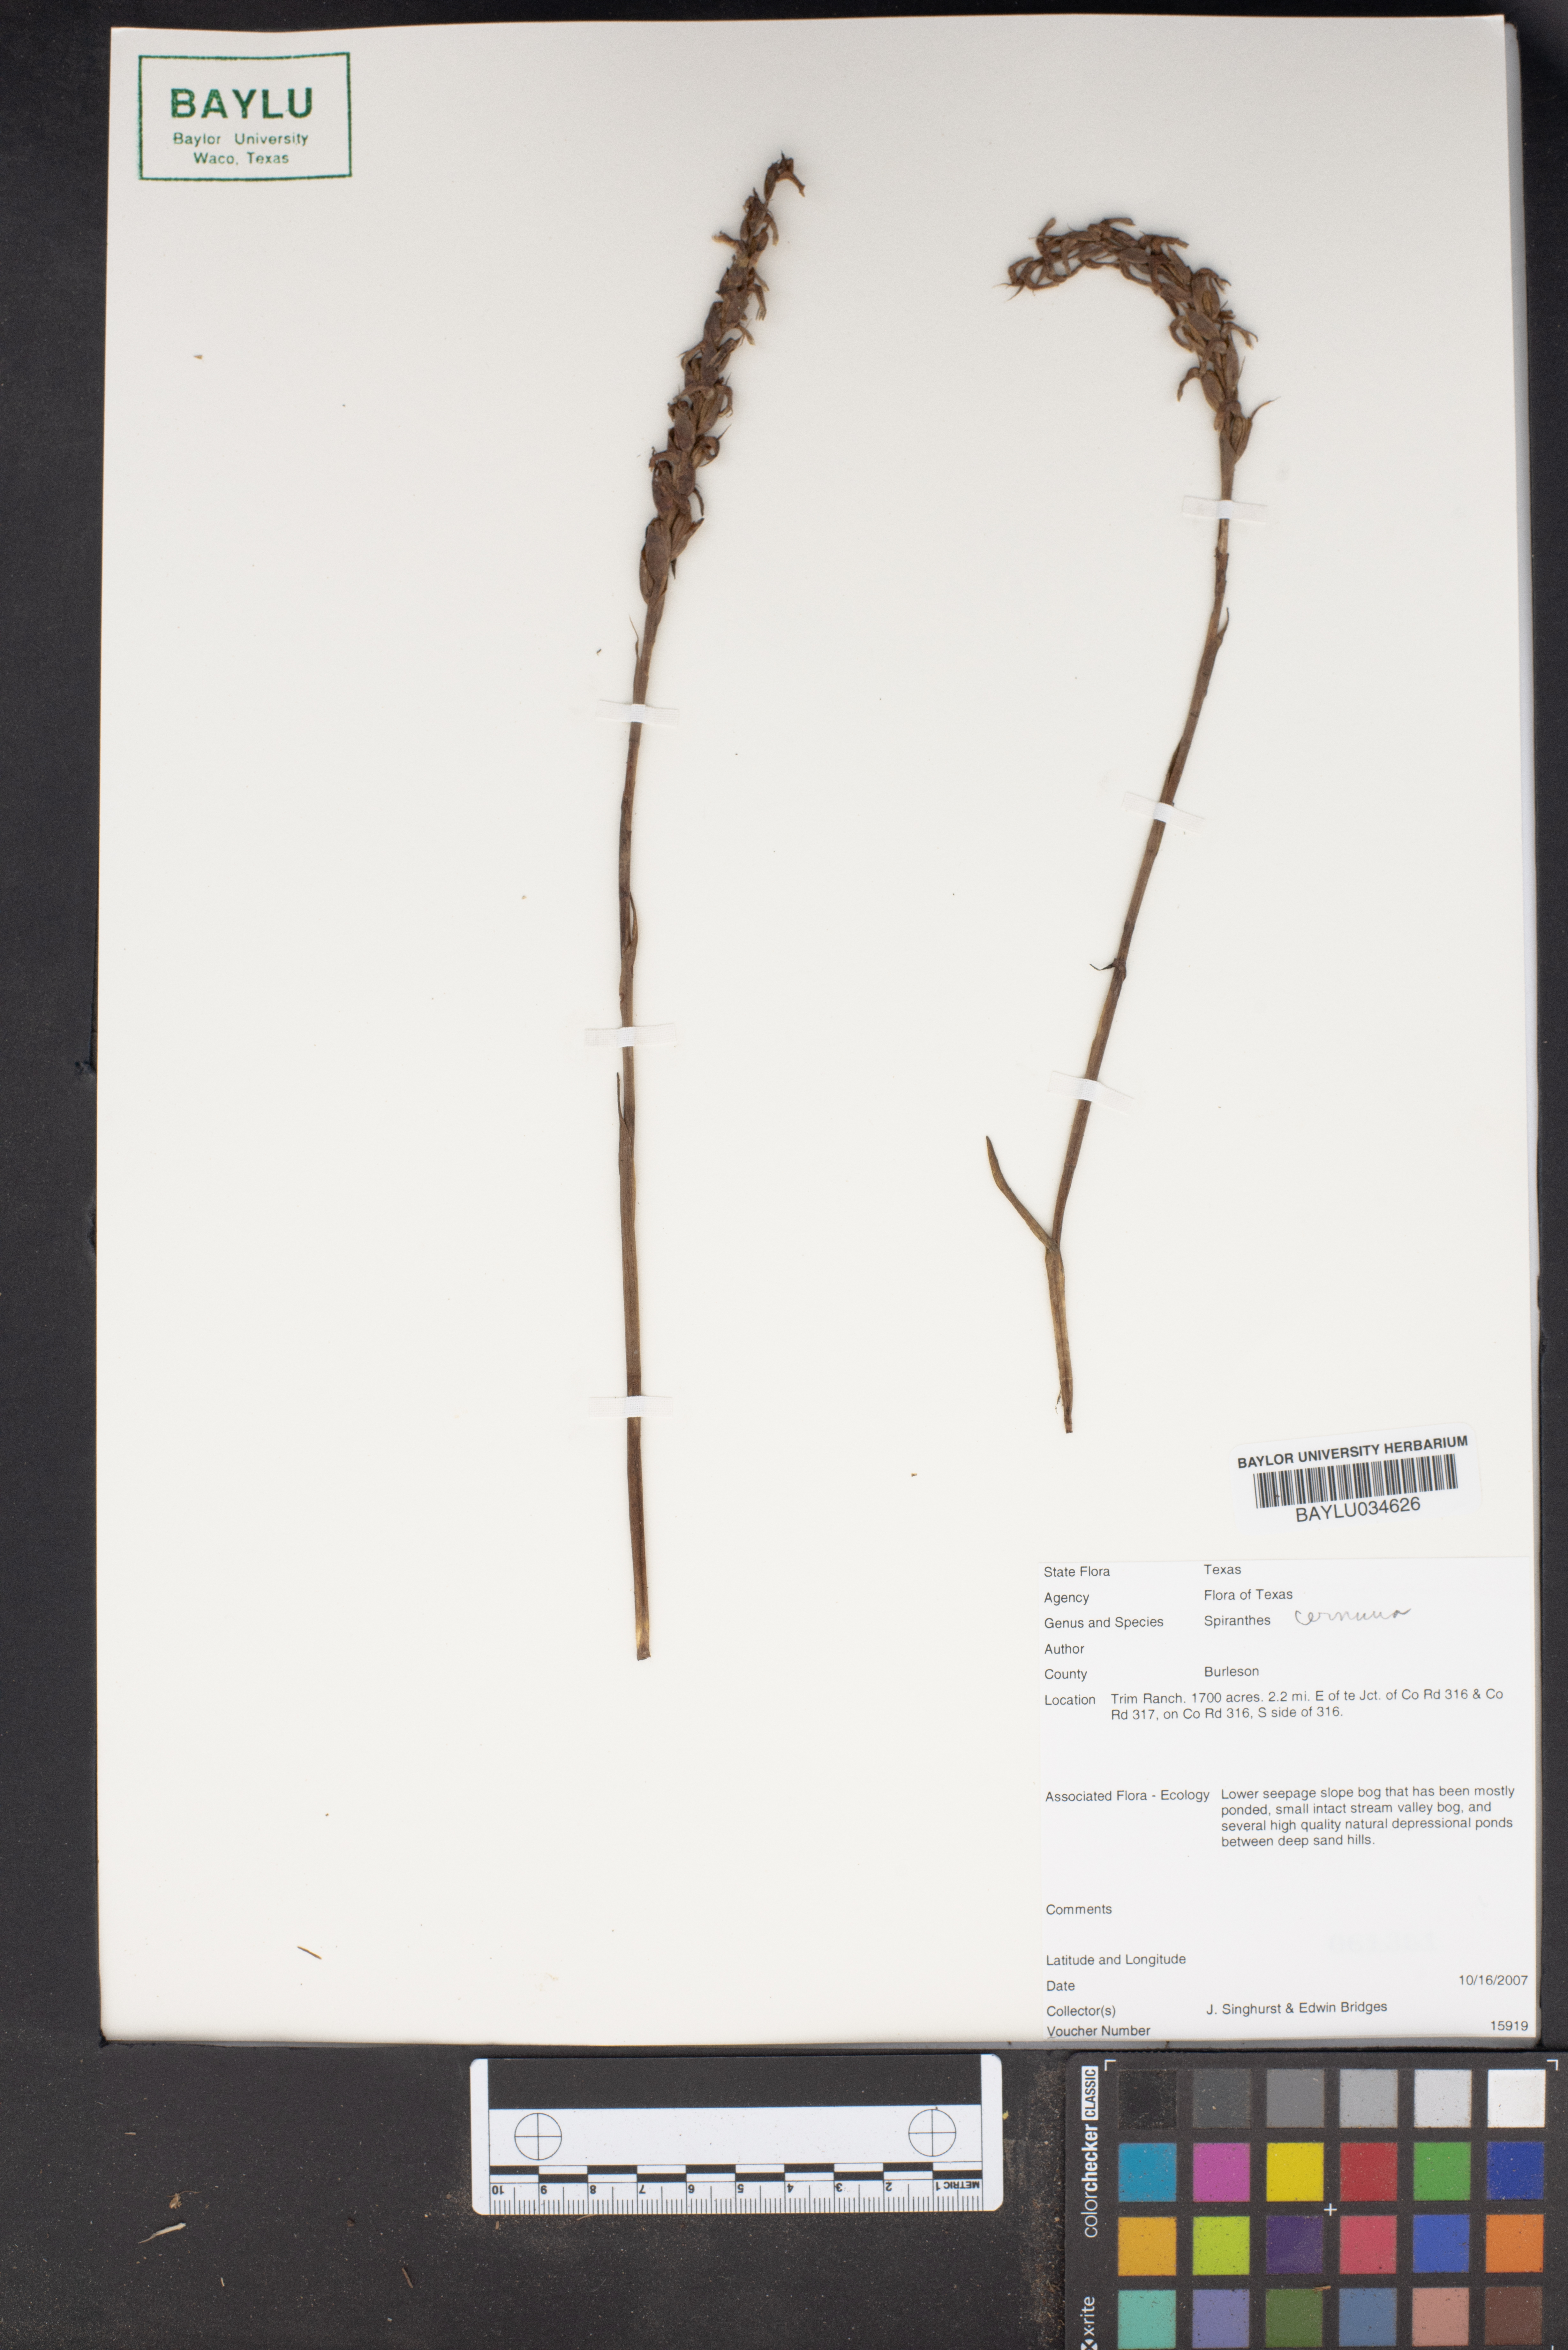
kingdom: Plantae
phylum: Tracheophyta
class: Liliopsida
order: Asparagales
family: Orchidaceae
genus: Spiranthes
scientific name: Spiranthes cernua
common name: Dropping ladies'-tresses
